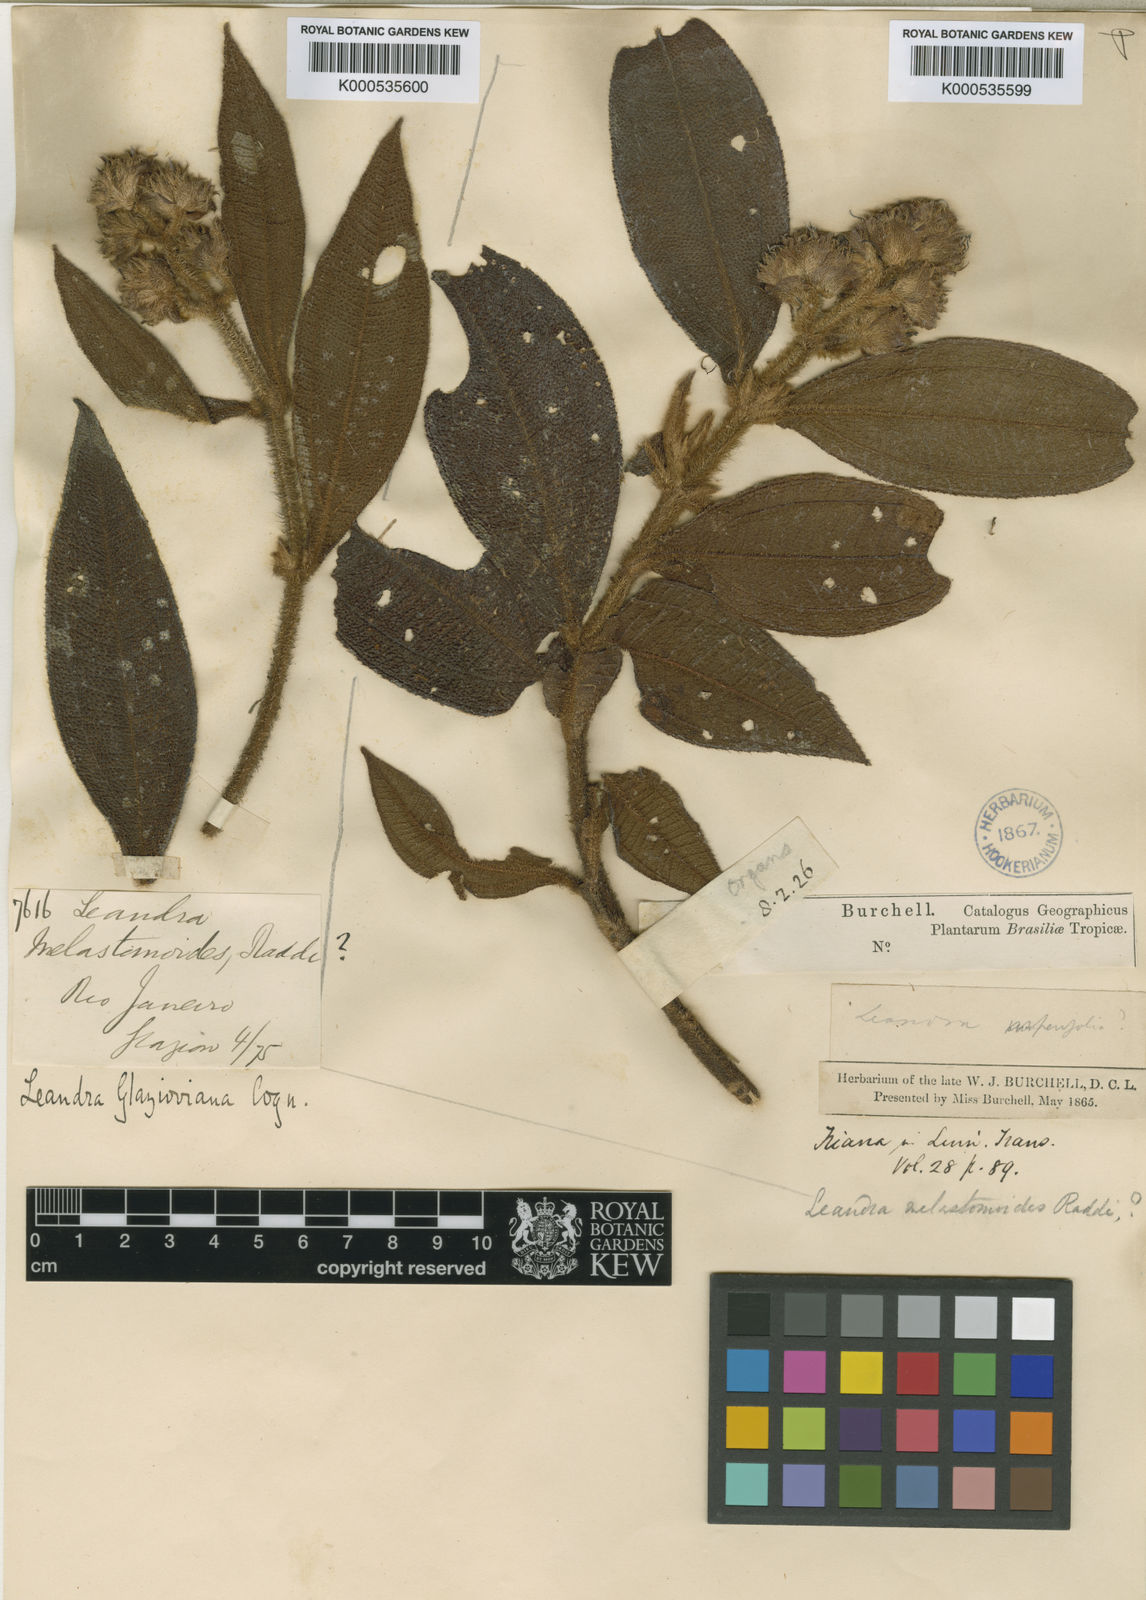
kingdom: Plantae
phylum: Tracheophyta
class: Magnoliopsida
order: Myrtales
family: Melastomataceae
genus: Miconia
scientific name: Miconia pubistyla
